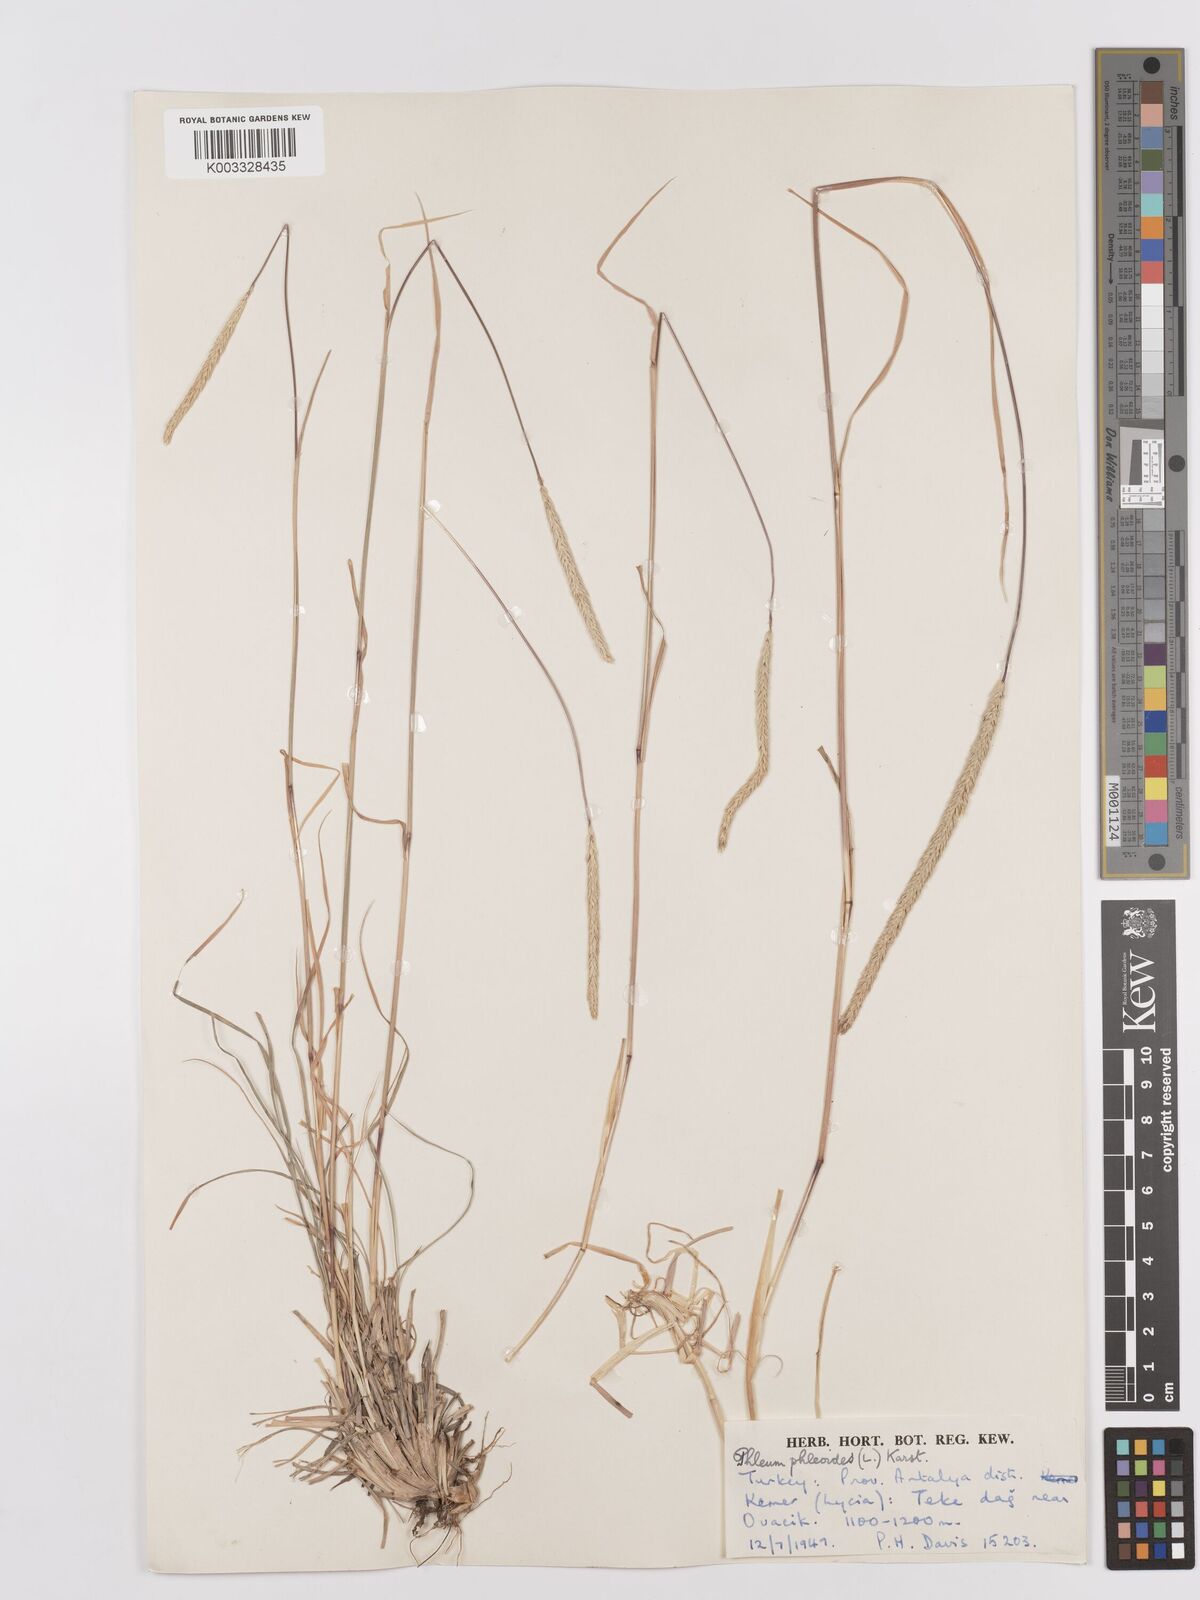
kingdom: Plantae
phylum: Tracheophyta
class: Liliopsida
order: Poales
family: Poaceae
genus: Phleum
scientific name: Phleum phleoides
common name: Purple-stem cat's-tail
